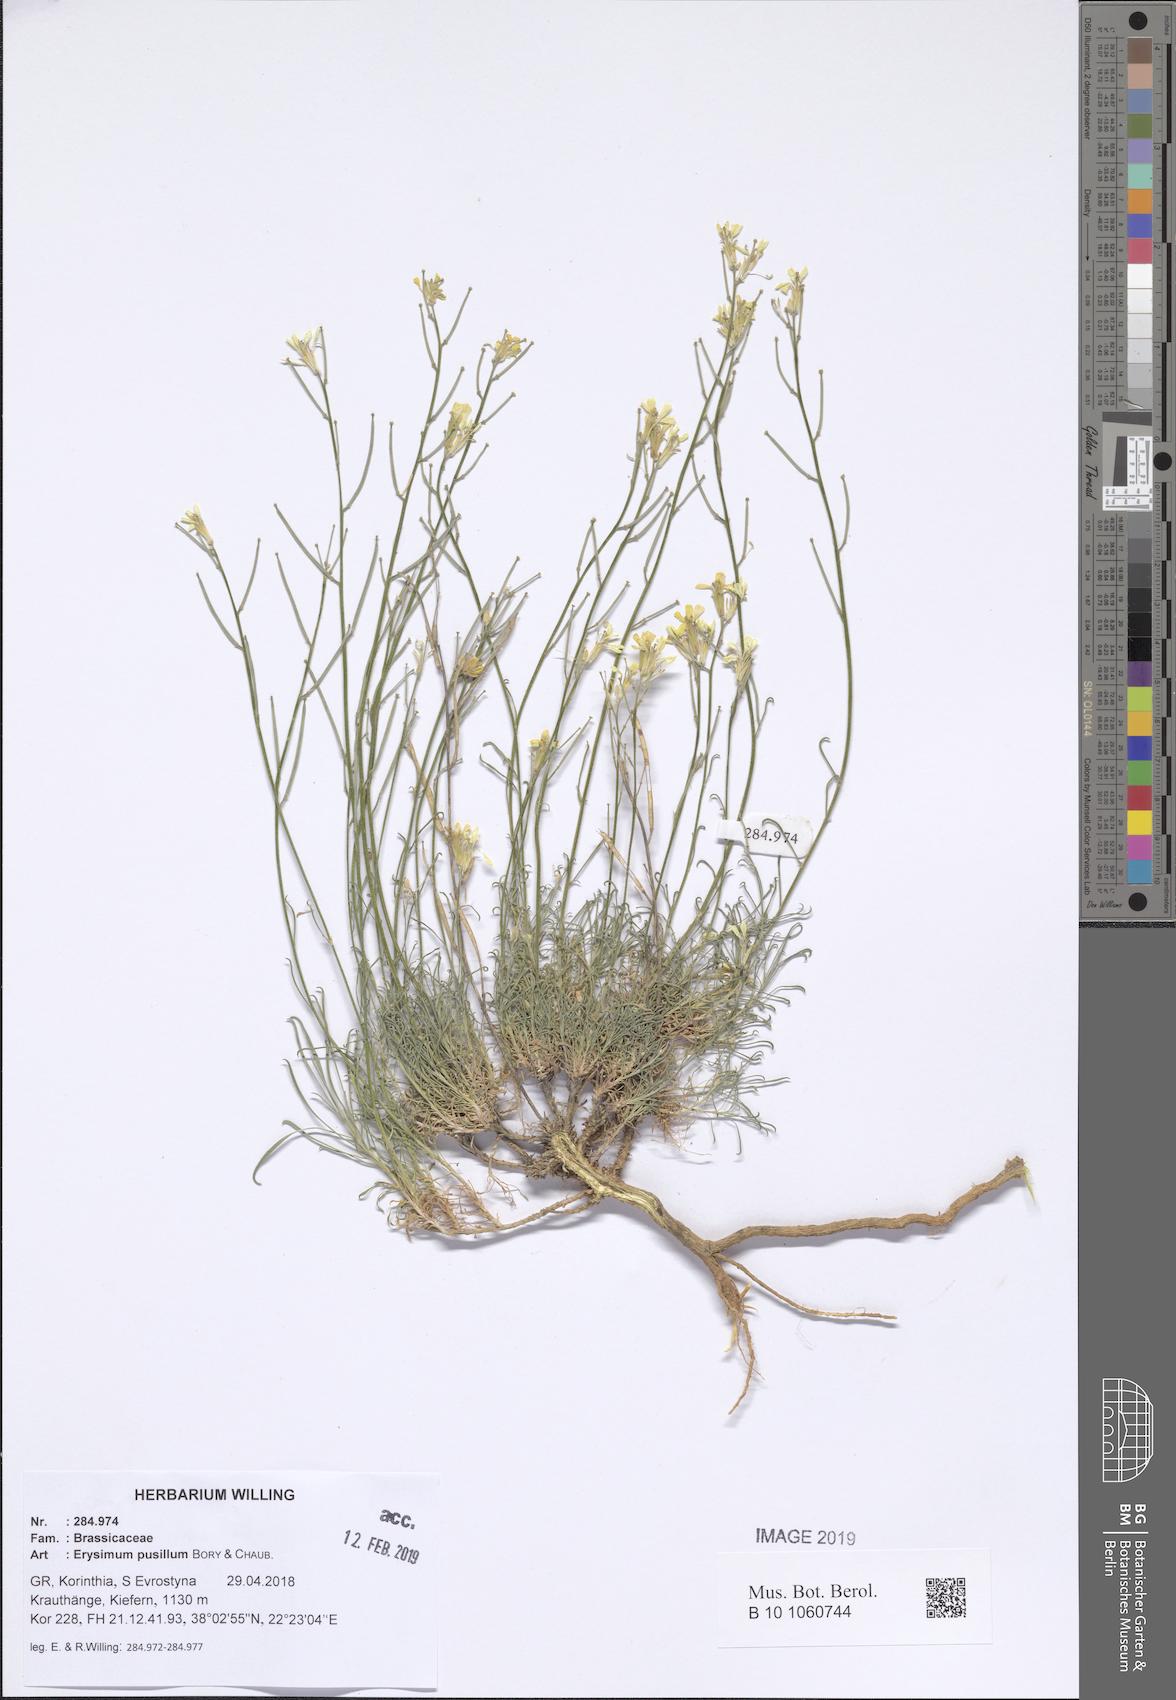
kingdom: Plantae
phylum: Tracheophyta
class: Magnoliopsida
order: Brassicales
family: Brassicaceae
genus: Erysimum
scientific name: Erysimum pusillum
